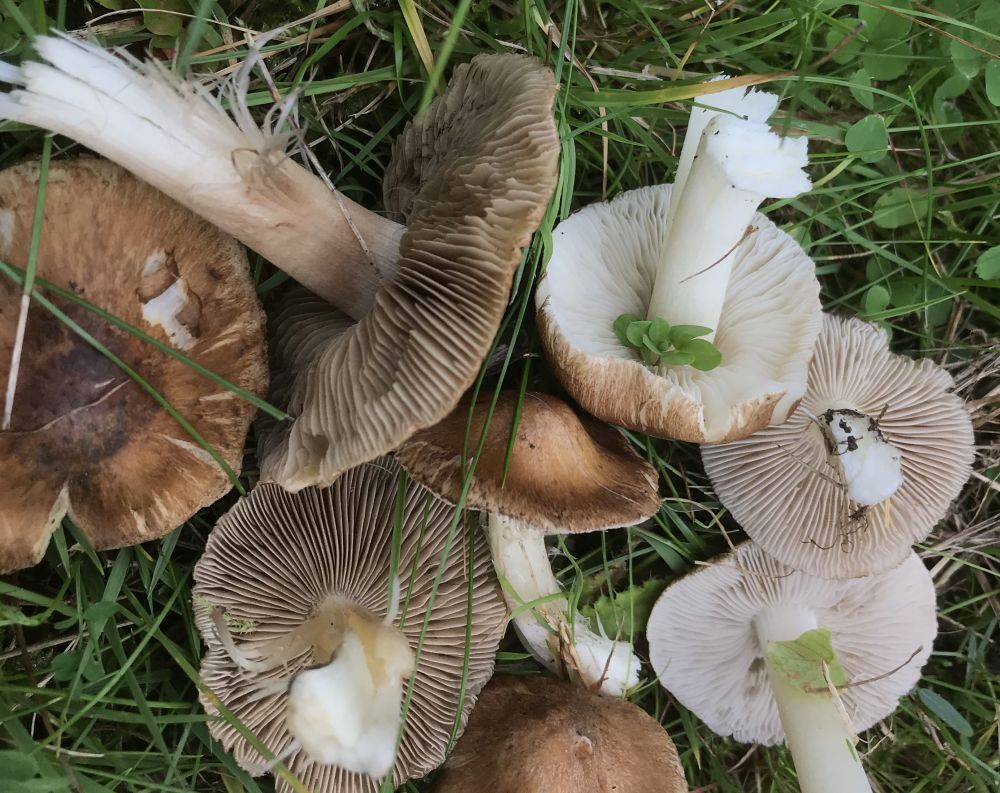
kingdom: Fungi
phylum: Basidiomycota
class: Agaricomycetes
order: Agaricales
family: Inocybaceae
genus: Inocybe
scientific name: Inocybe
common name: trævlhat
